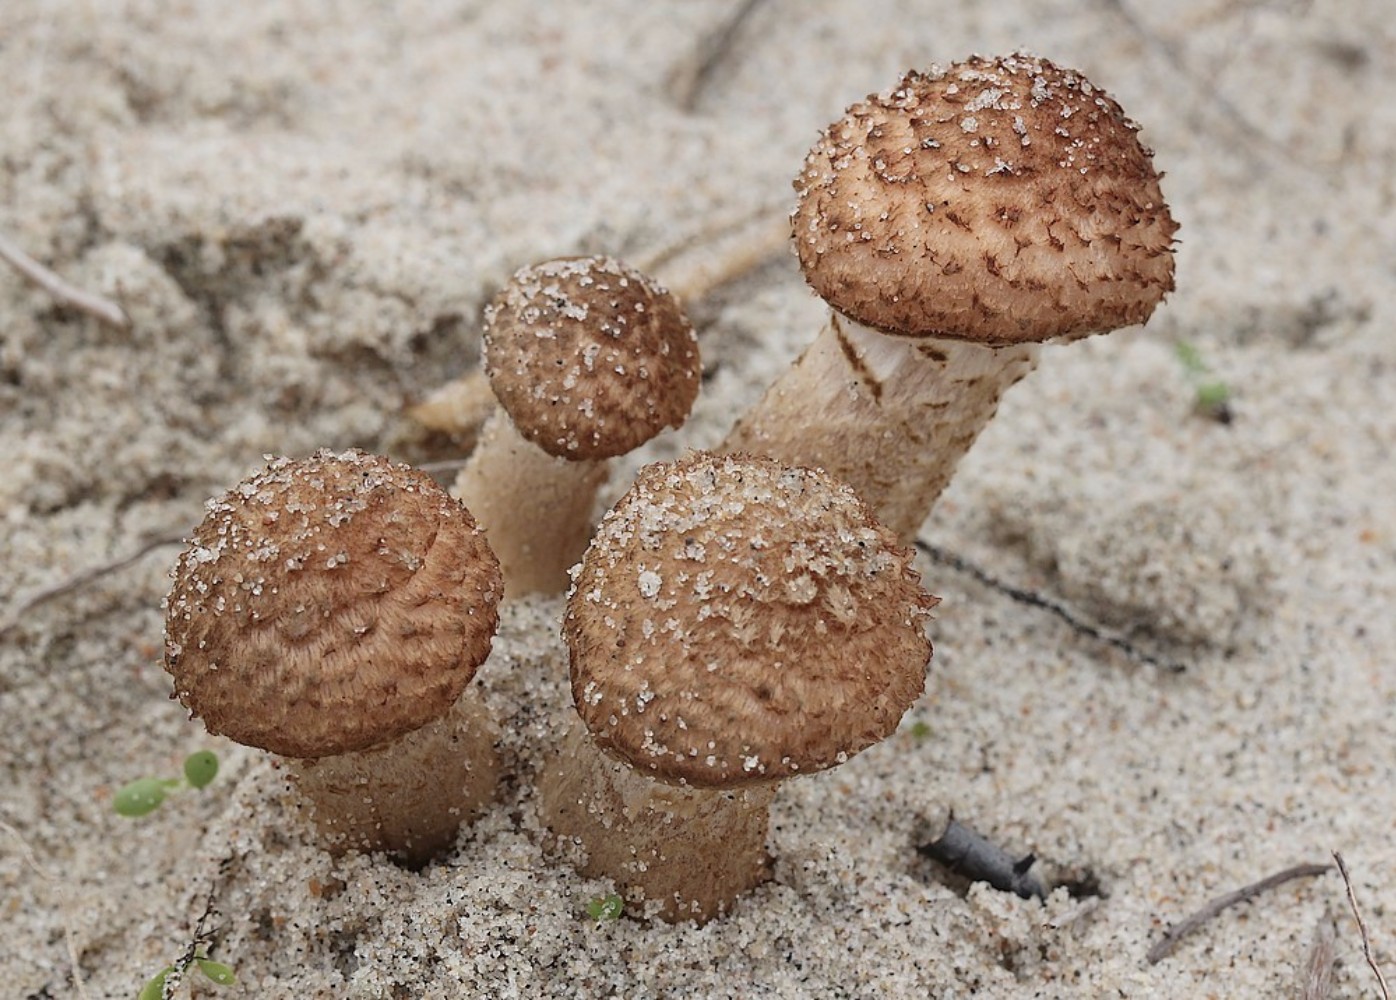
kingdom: Fungi
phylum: Basidiomycota
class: Agaricomycetes
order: Agaricales
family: Physalacriaceae
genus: Armillaria
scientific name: Armillaria ostoyae
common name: mørk honningsvamp
